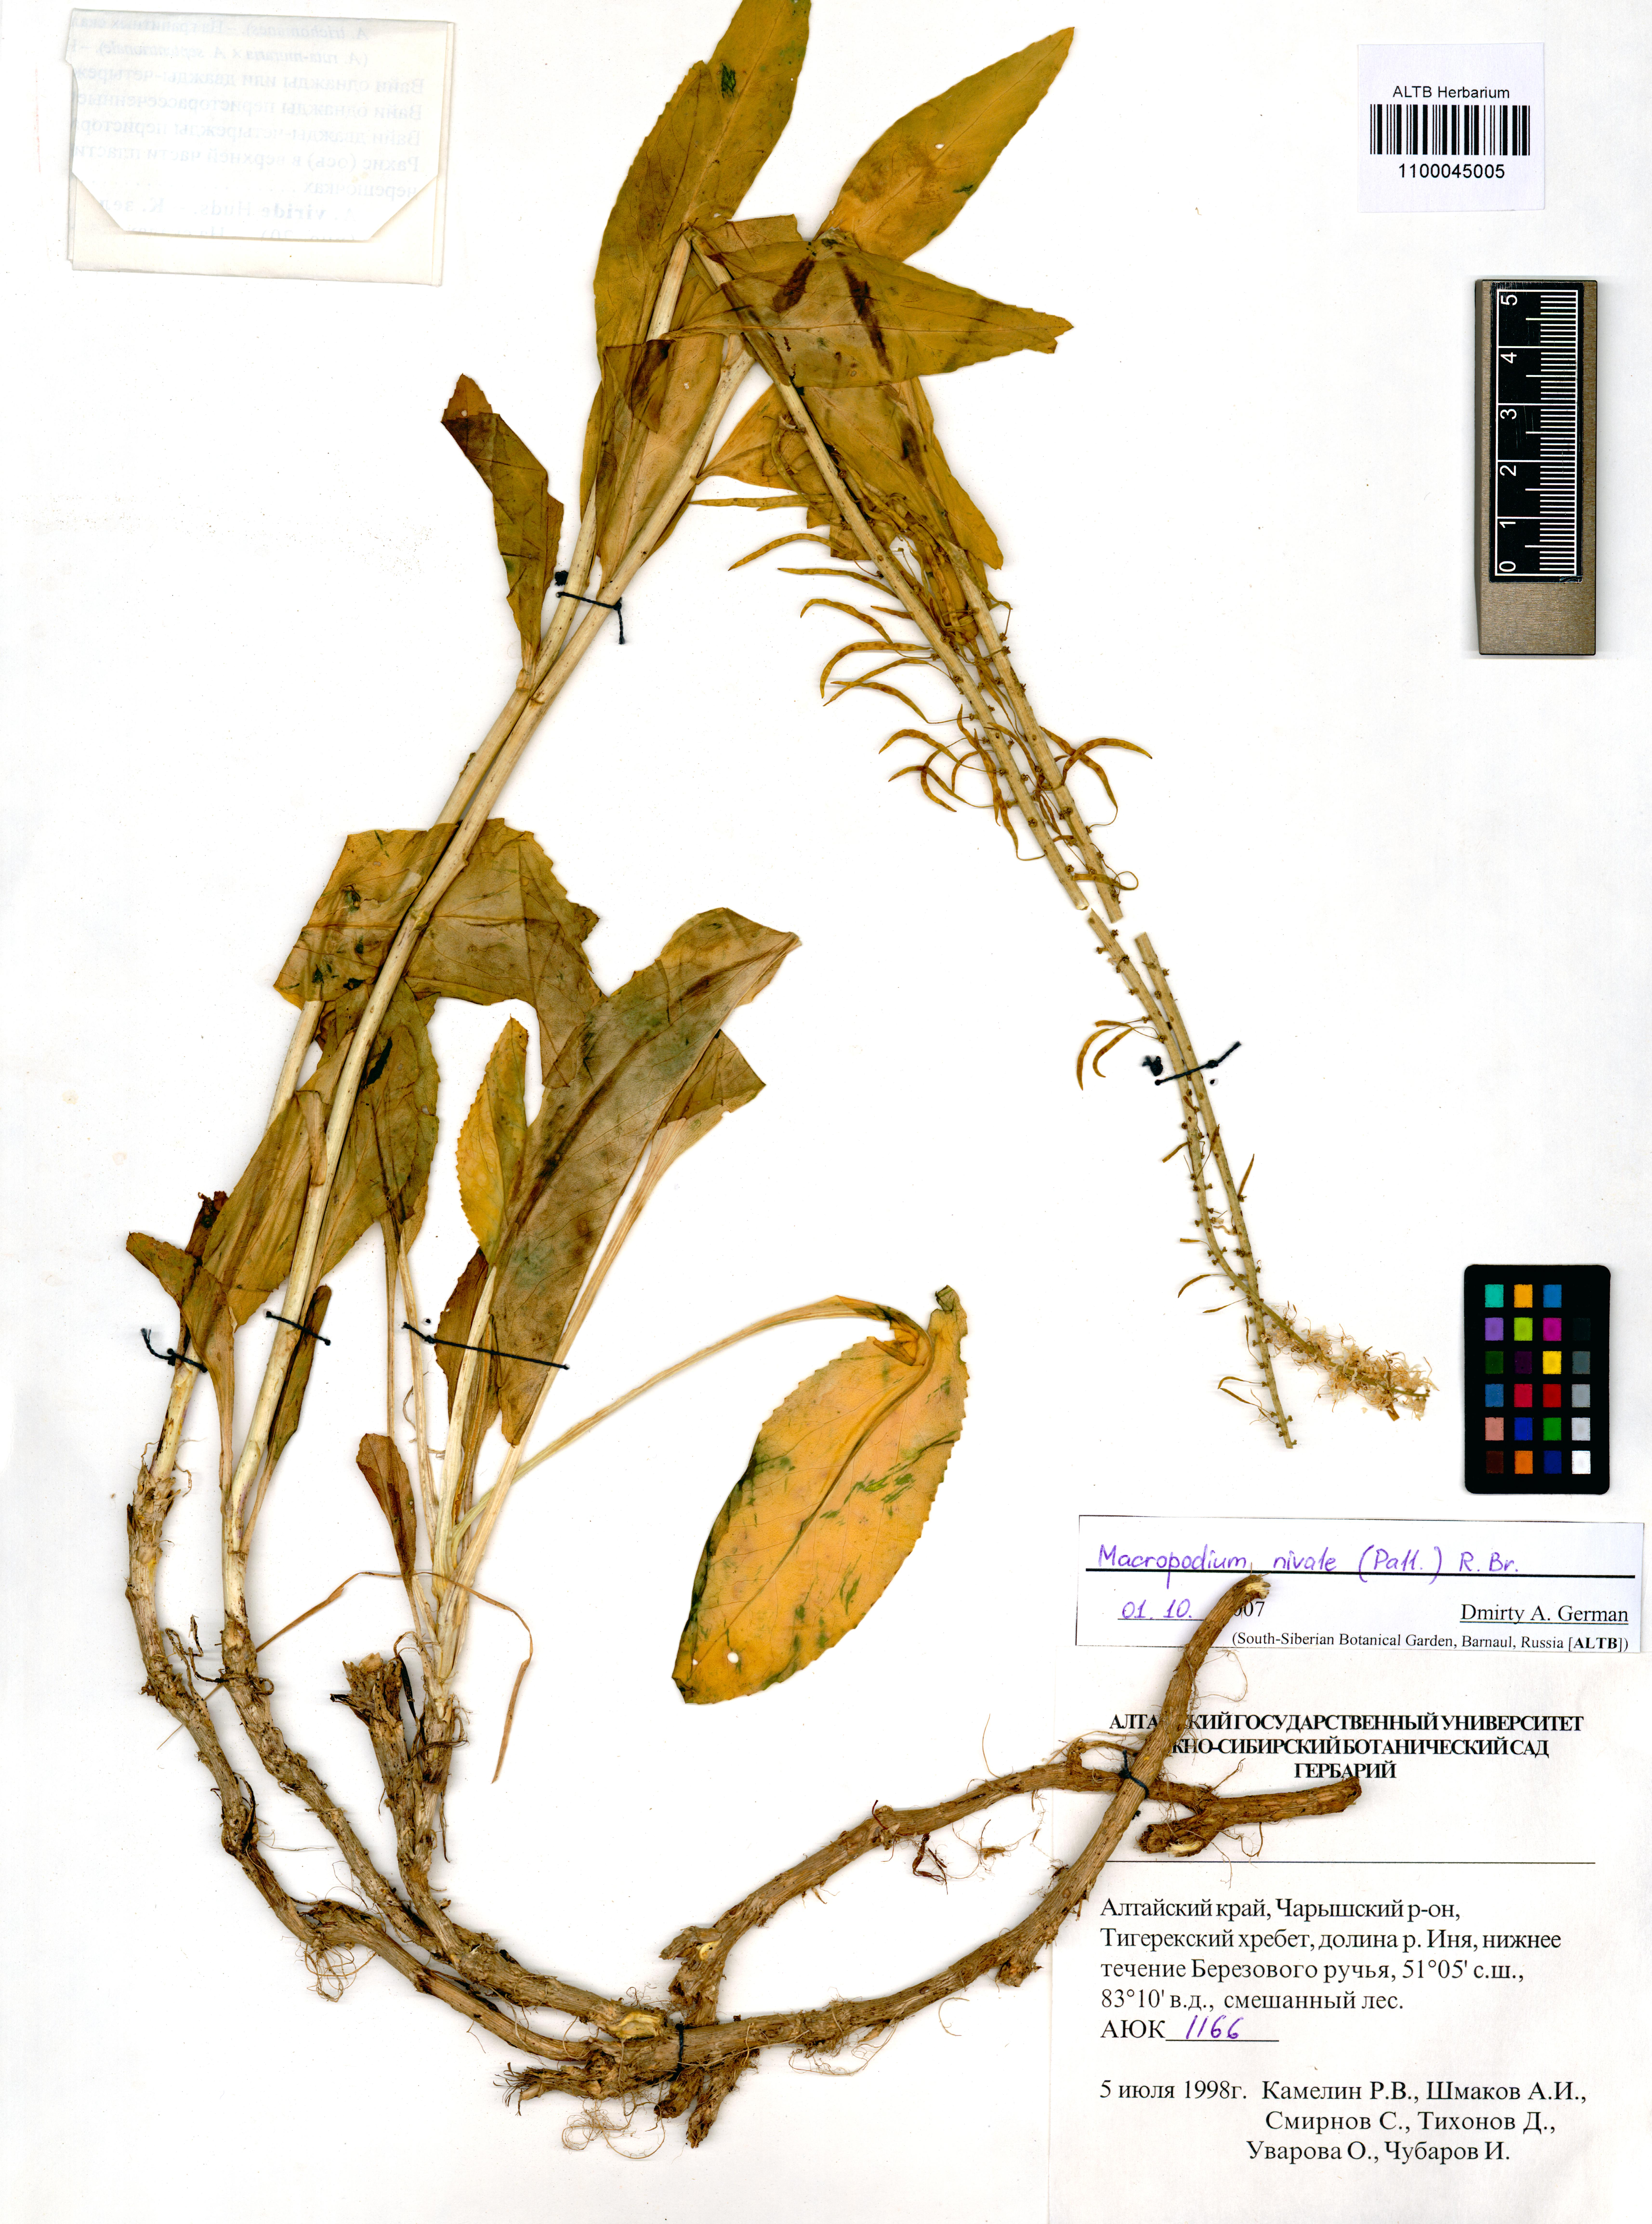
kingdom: Plantae
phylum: Tracheophyta
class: Magnoliopsida
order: Brassicales
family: Brassicaceae
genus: Macropodium
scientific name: Macropodium nivale
